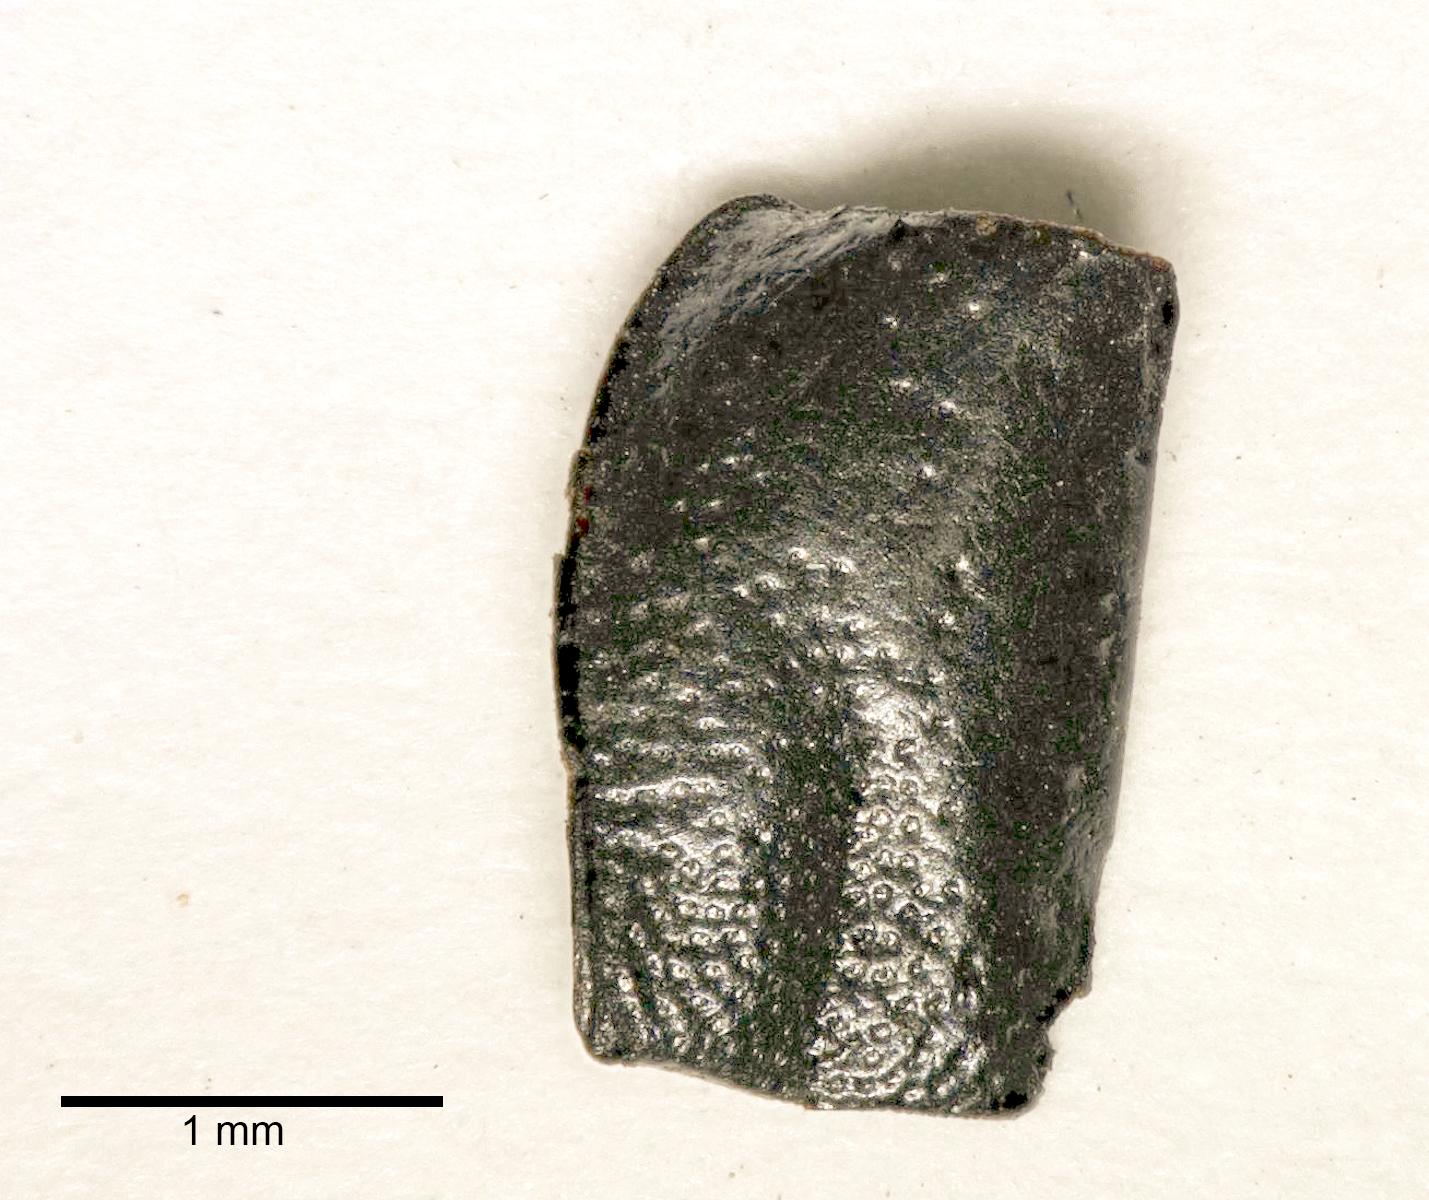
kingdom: Animalia
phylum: Arthropoda
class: Insecta
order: Coleoptera
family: Carabidae
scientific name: Carabidae
